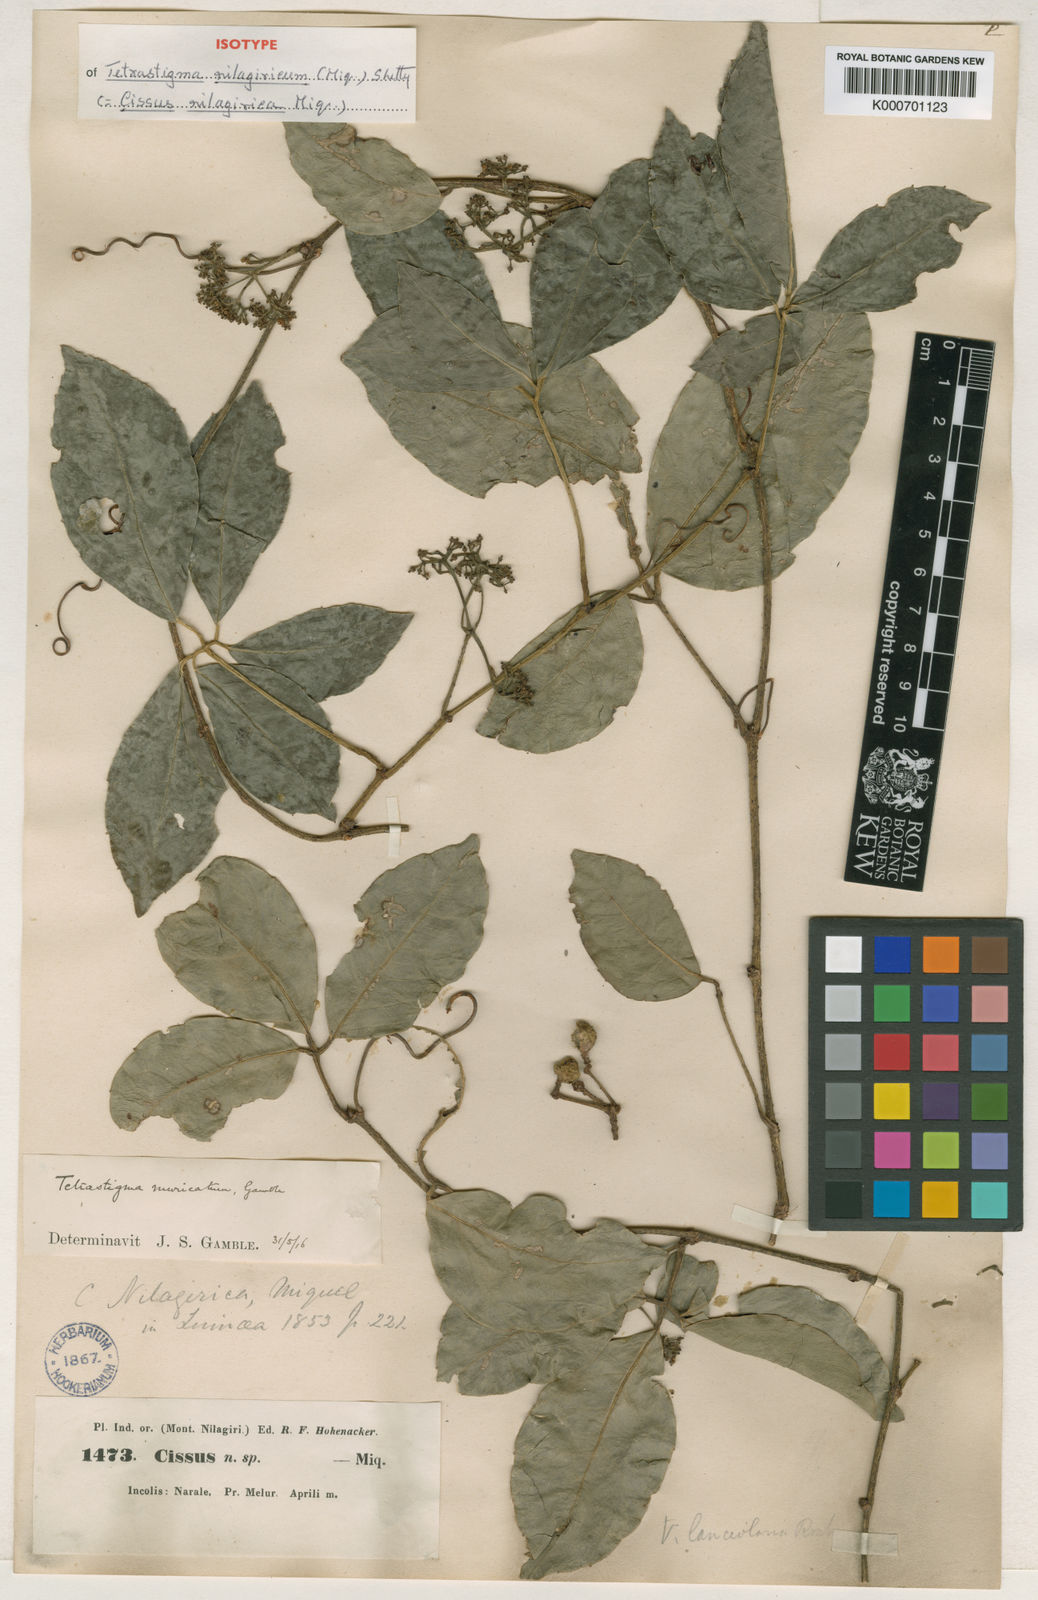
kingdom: Plantae
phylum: Tracheophyta
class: Magnoliopsida
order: Vitales
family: Vitaceae
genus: Tetrastigma
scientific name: Tetrastigma
